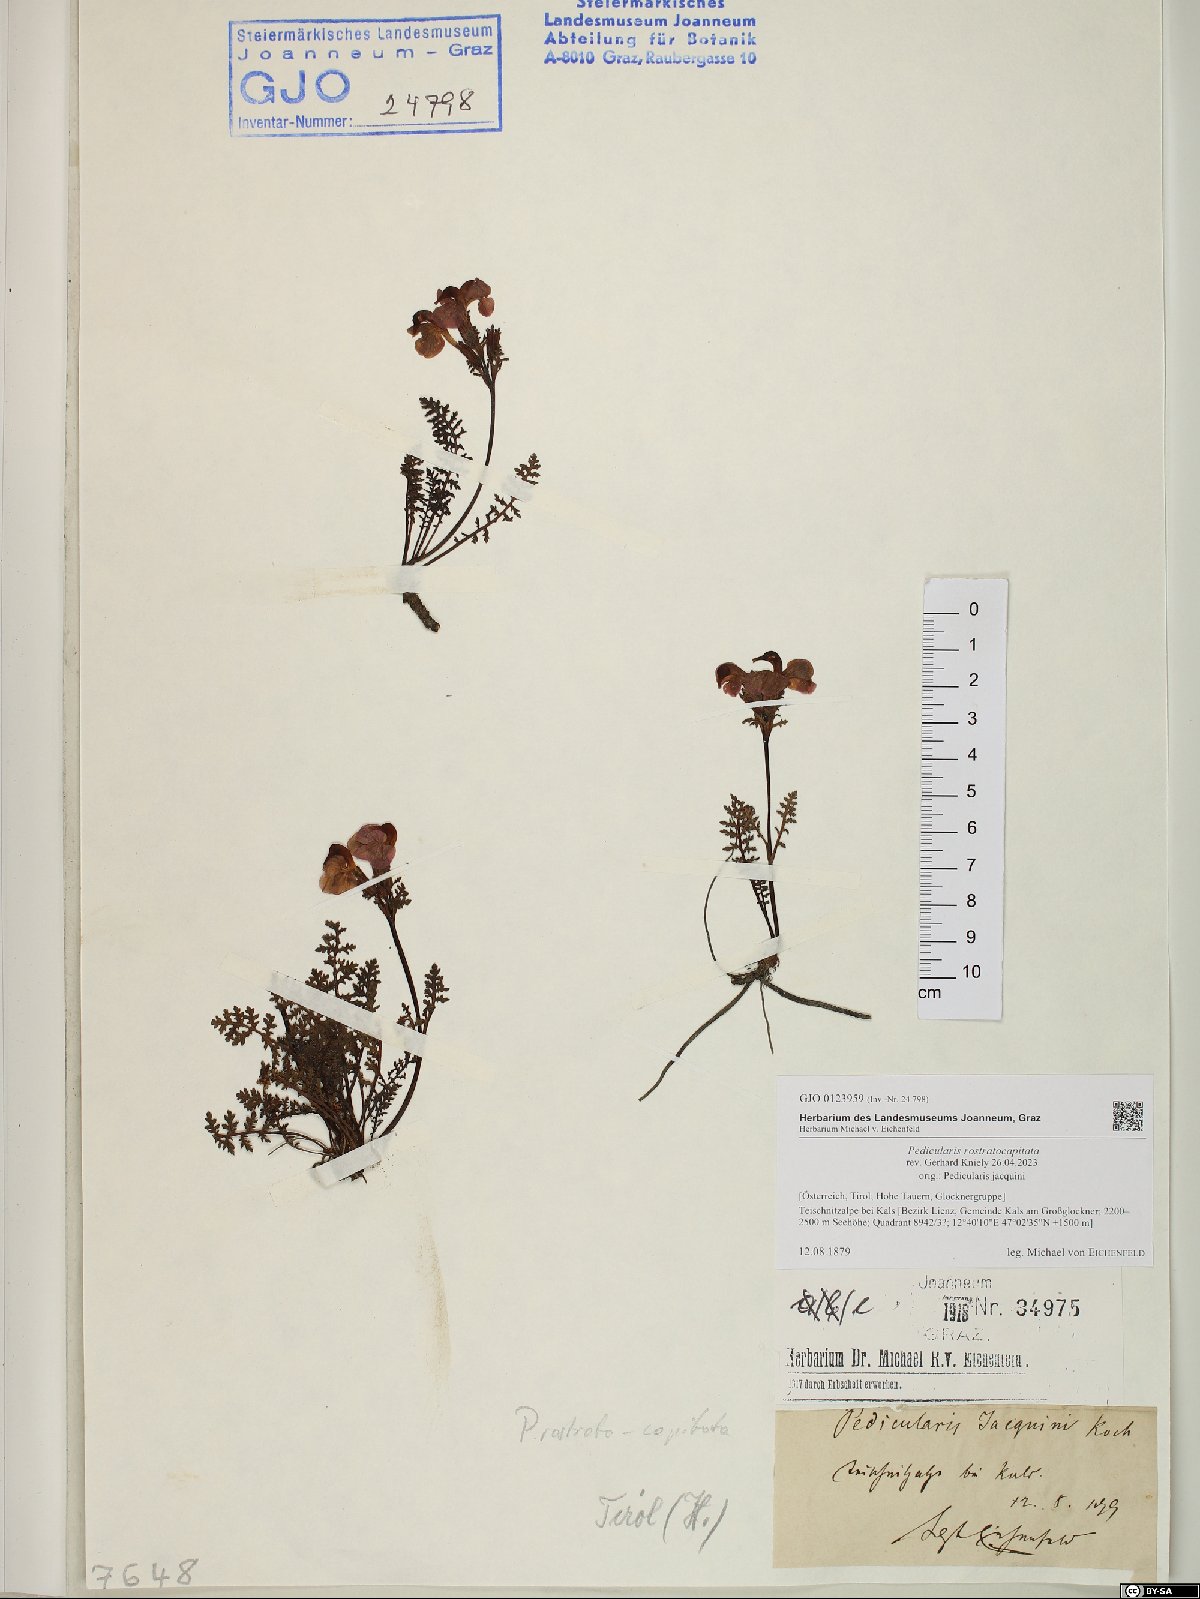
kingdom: Plantae
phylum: Tracheophyta
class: Magnoliopsida
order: Lamiales
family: Orobanchaceae
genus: Pedicularis
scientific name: Pedicularis rostratocapitata
